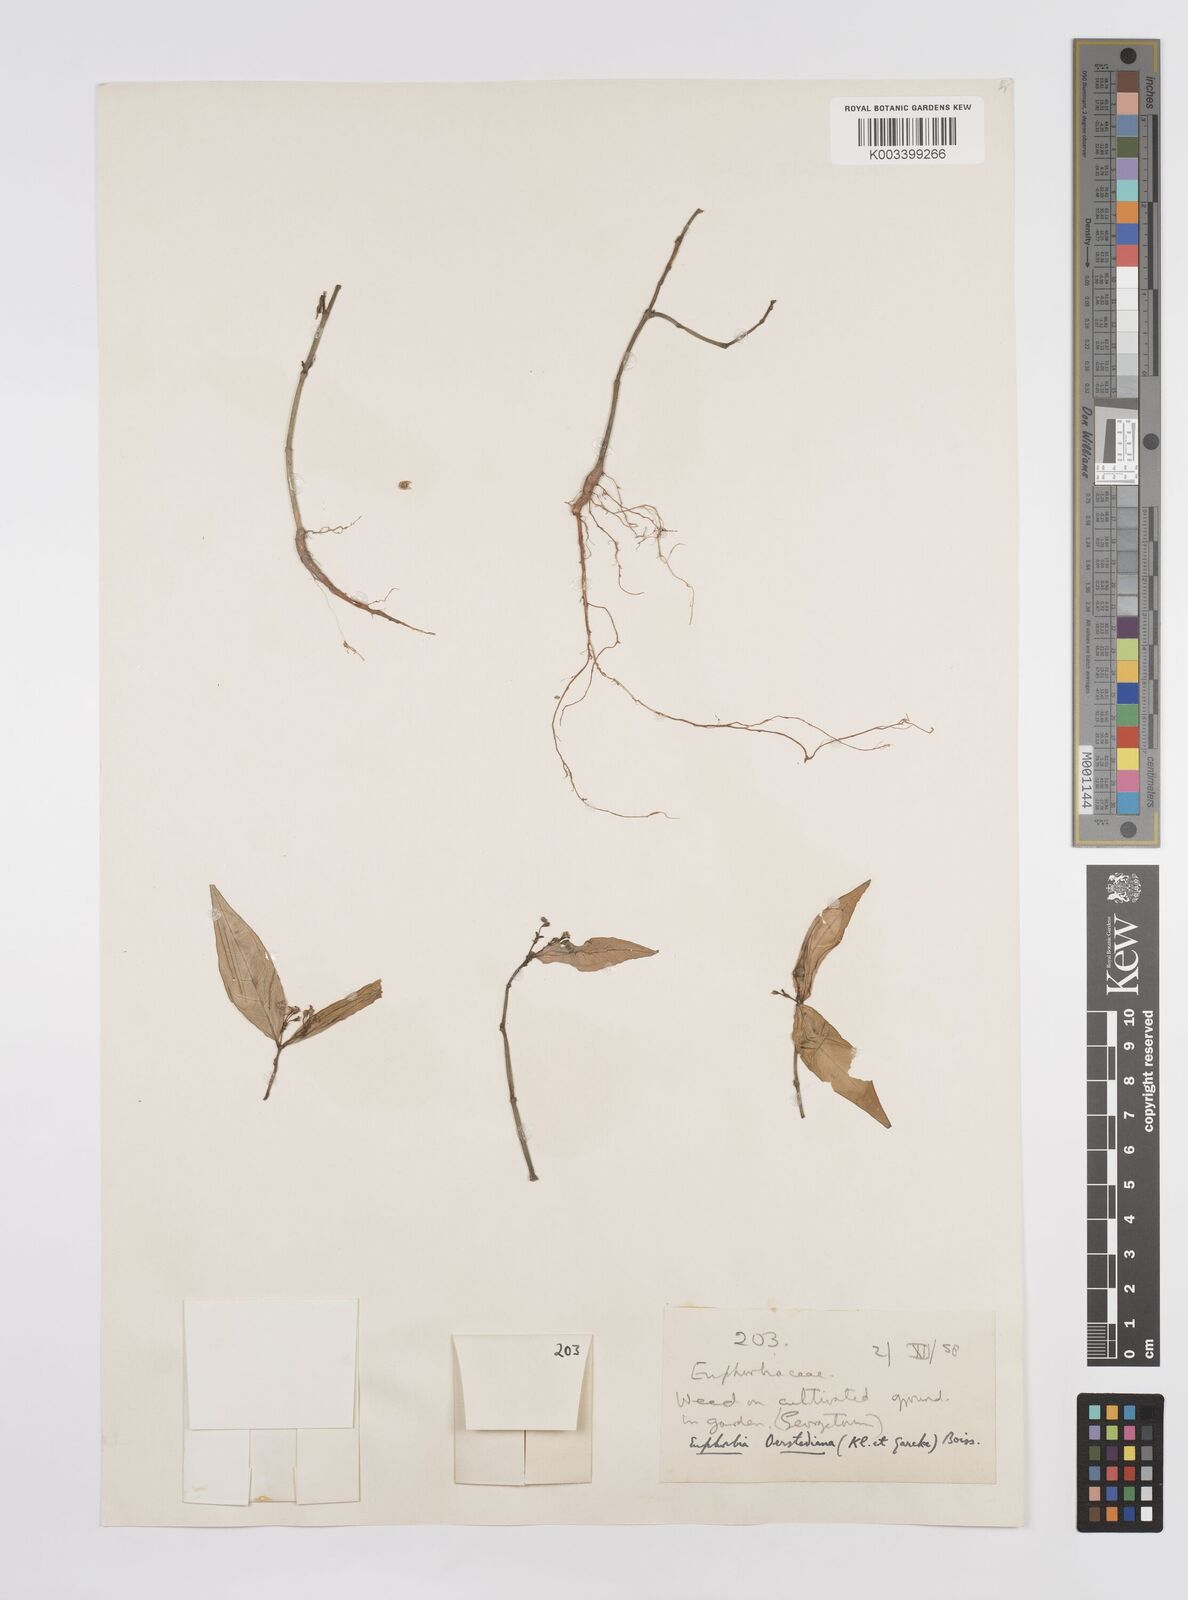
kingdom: Plantae
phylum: Tracheophyta
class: Magnoliopsida
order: Malpighiales
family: Euphorbiaceae
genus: Euphorbia
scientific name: Euphorbia oerstediana
